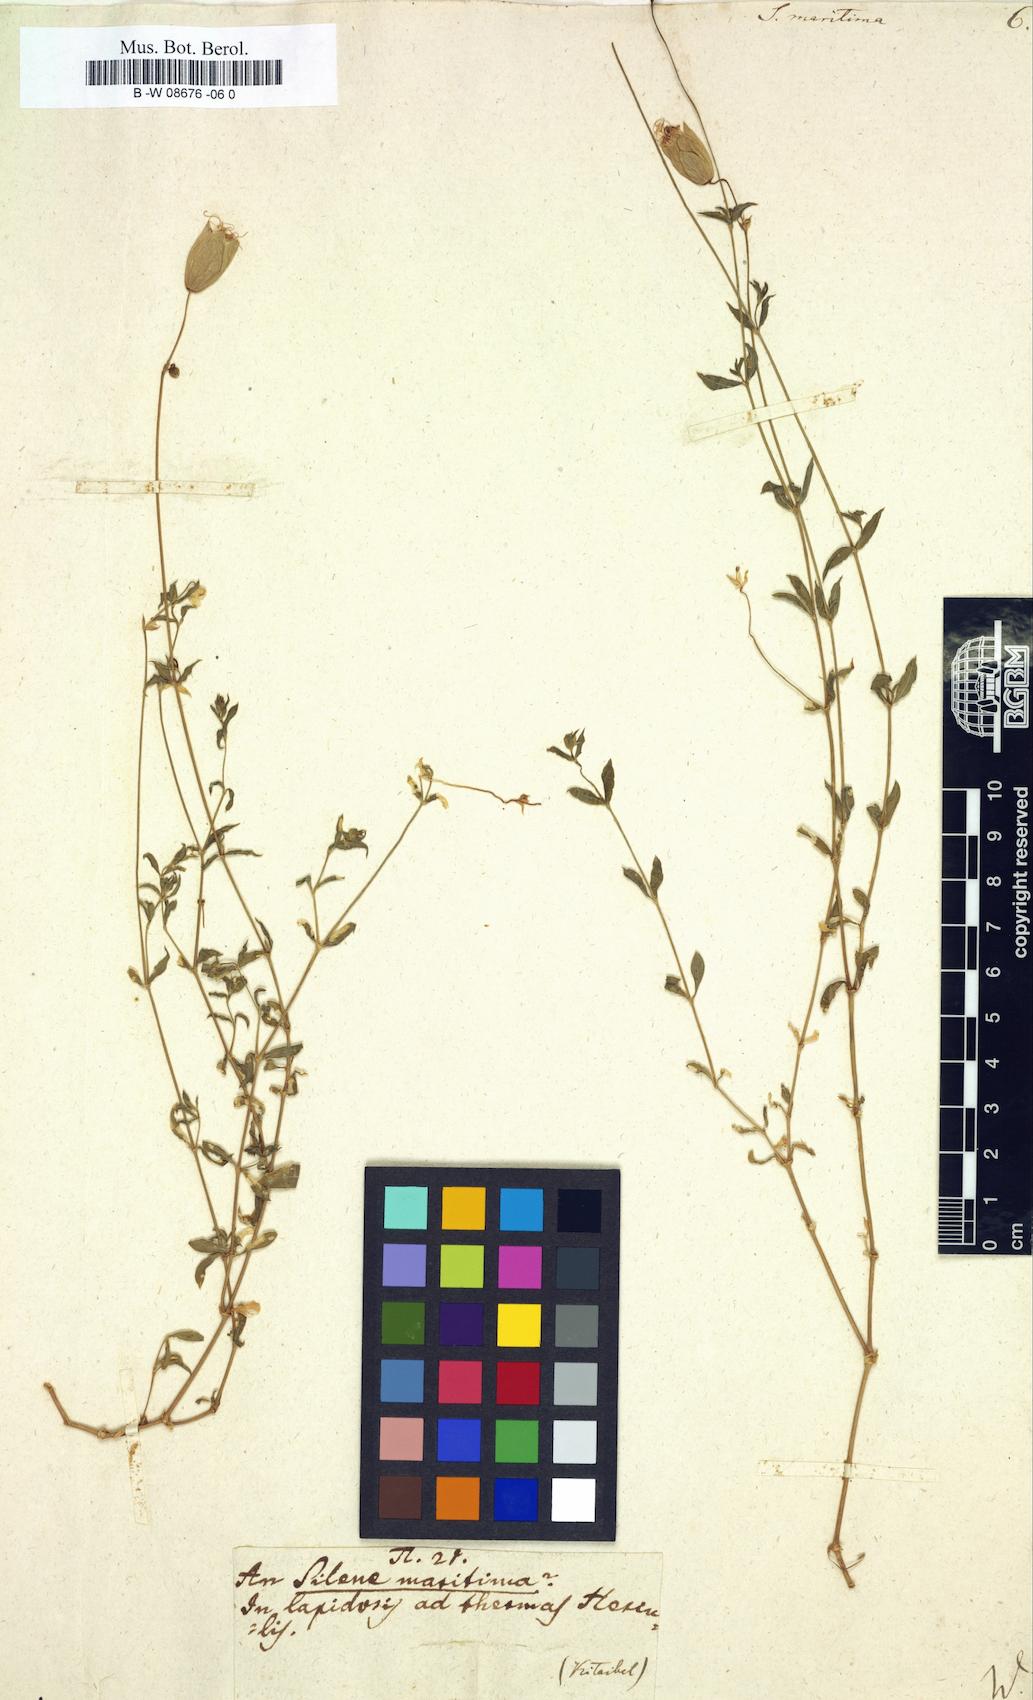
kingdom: Plantae
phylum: Tracheophyta
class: Magnoliopsida
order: Caryophyllales
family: Caryophyllaceae
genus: Silene
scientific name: Silene
